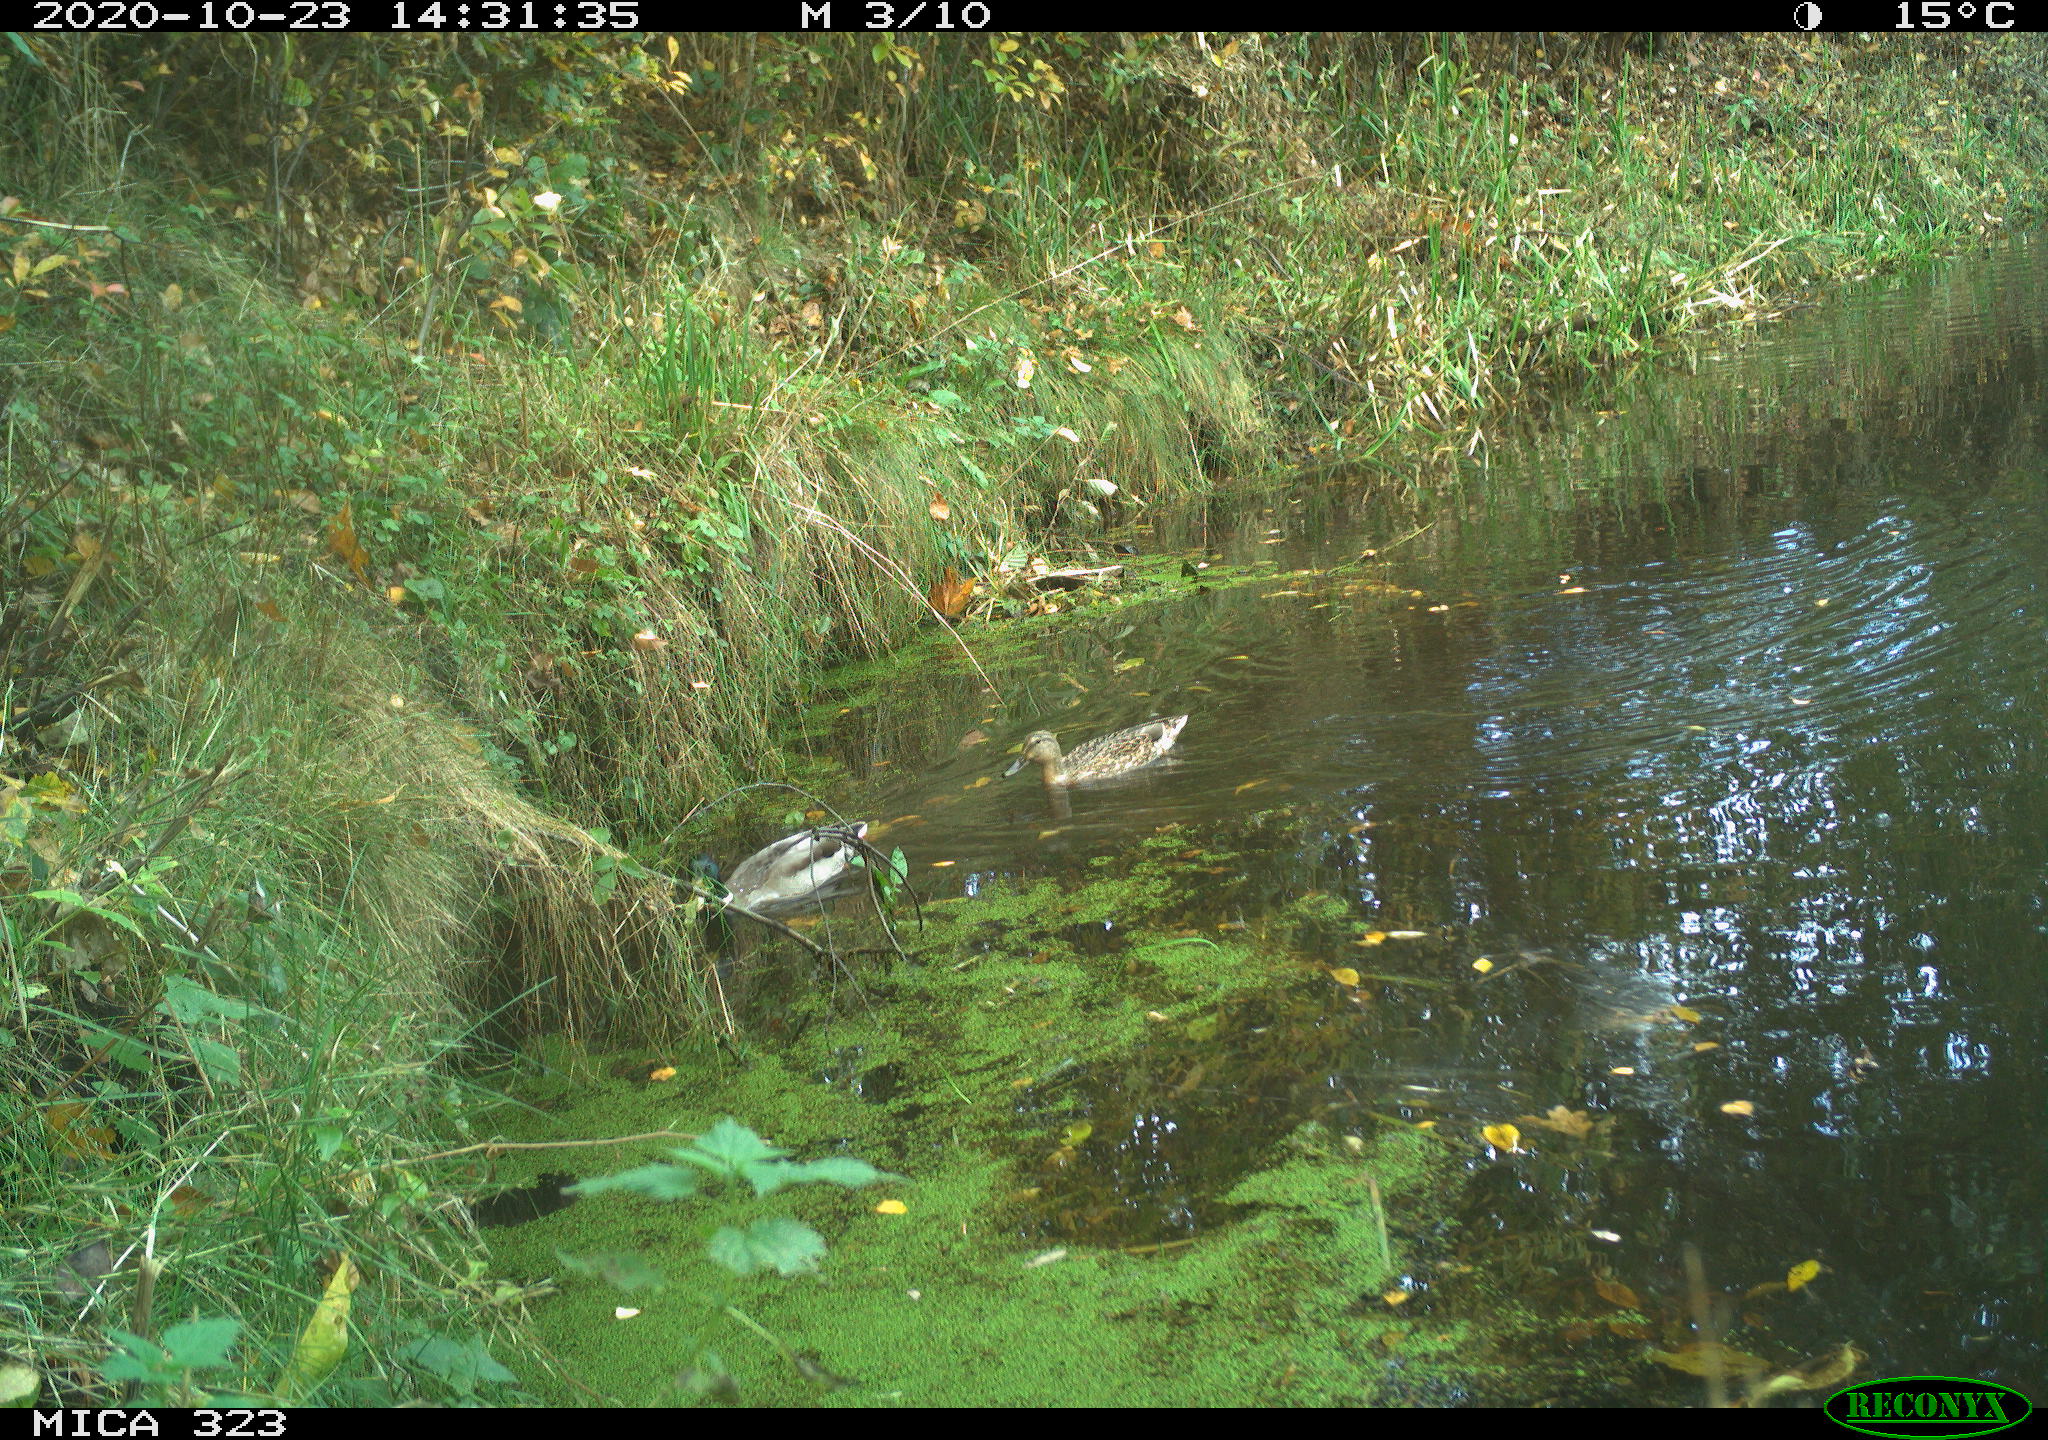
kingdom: Animalia
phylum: Chordata
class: Aves
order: Anseriformes
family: Anatidae
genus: Anas
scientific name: Anas platyrhynchos
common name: Mallard
